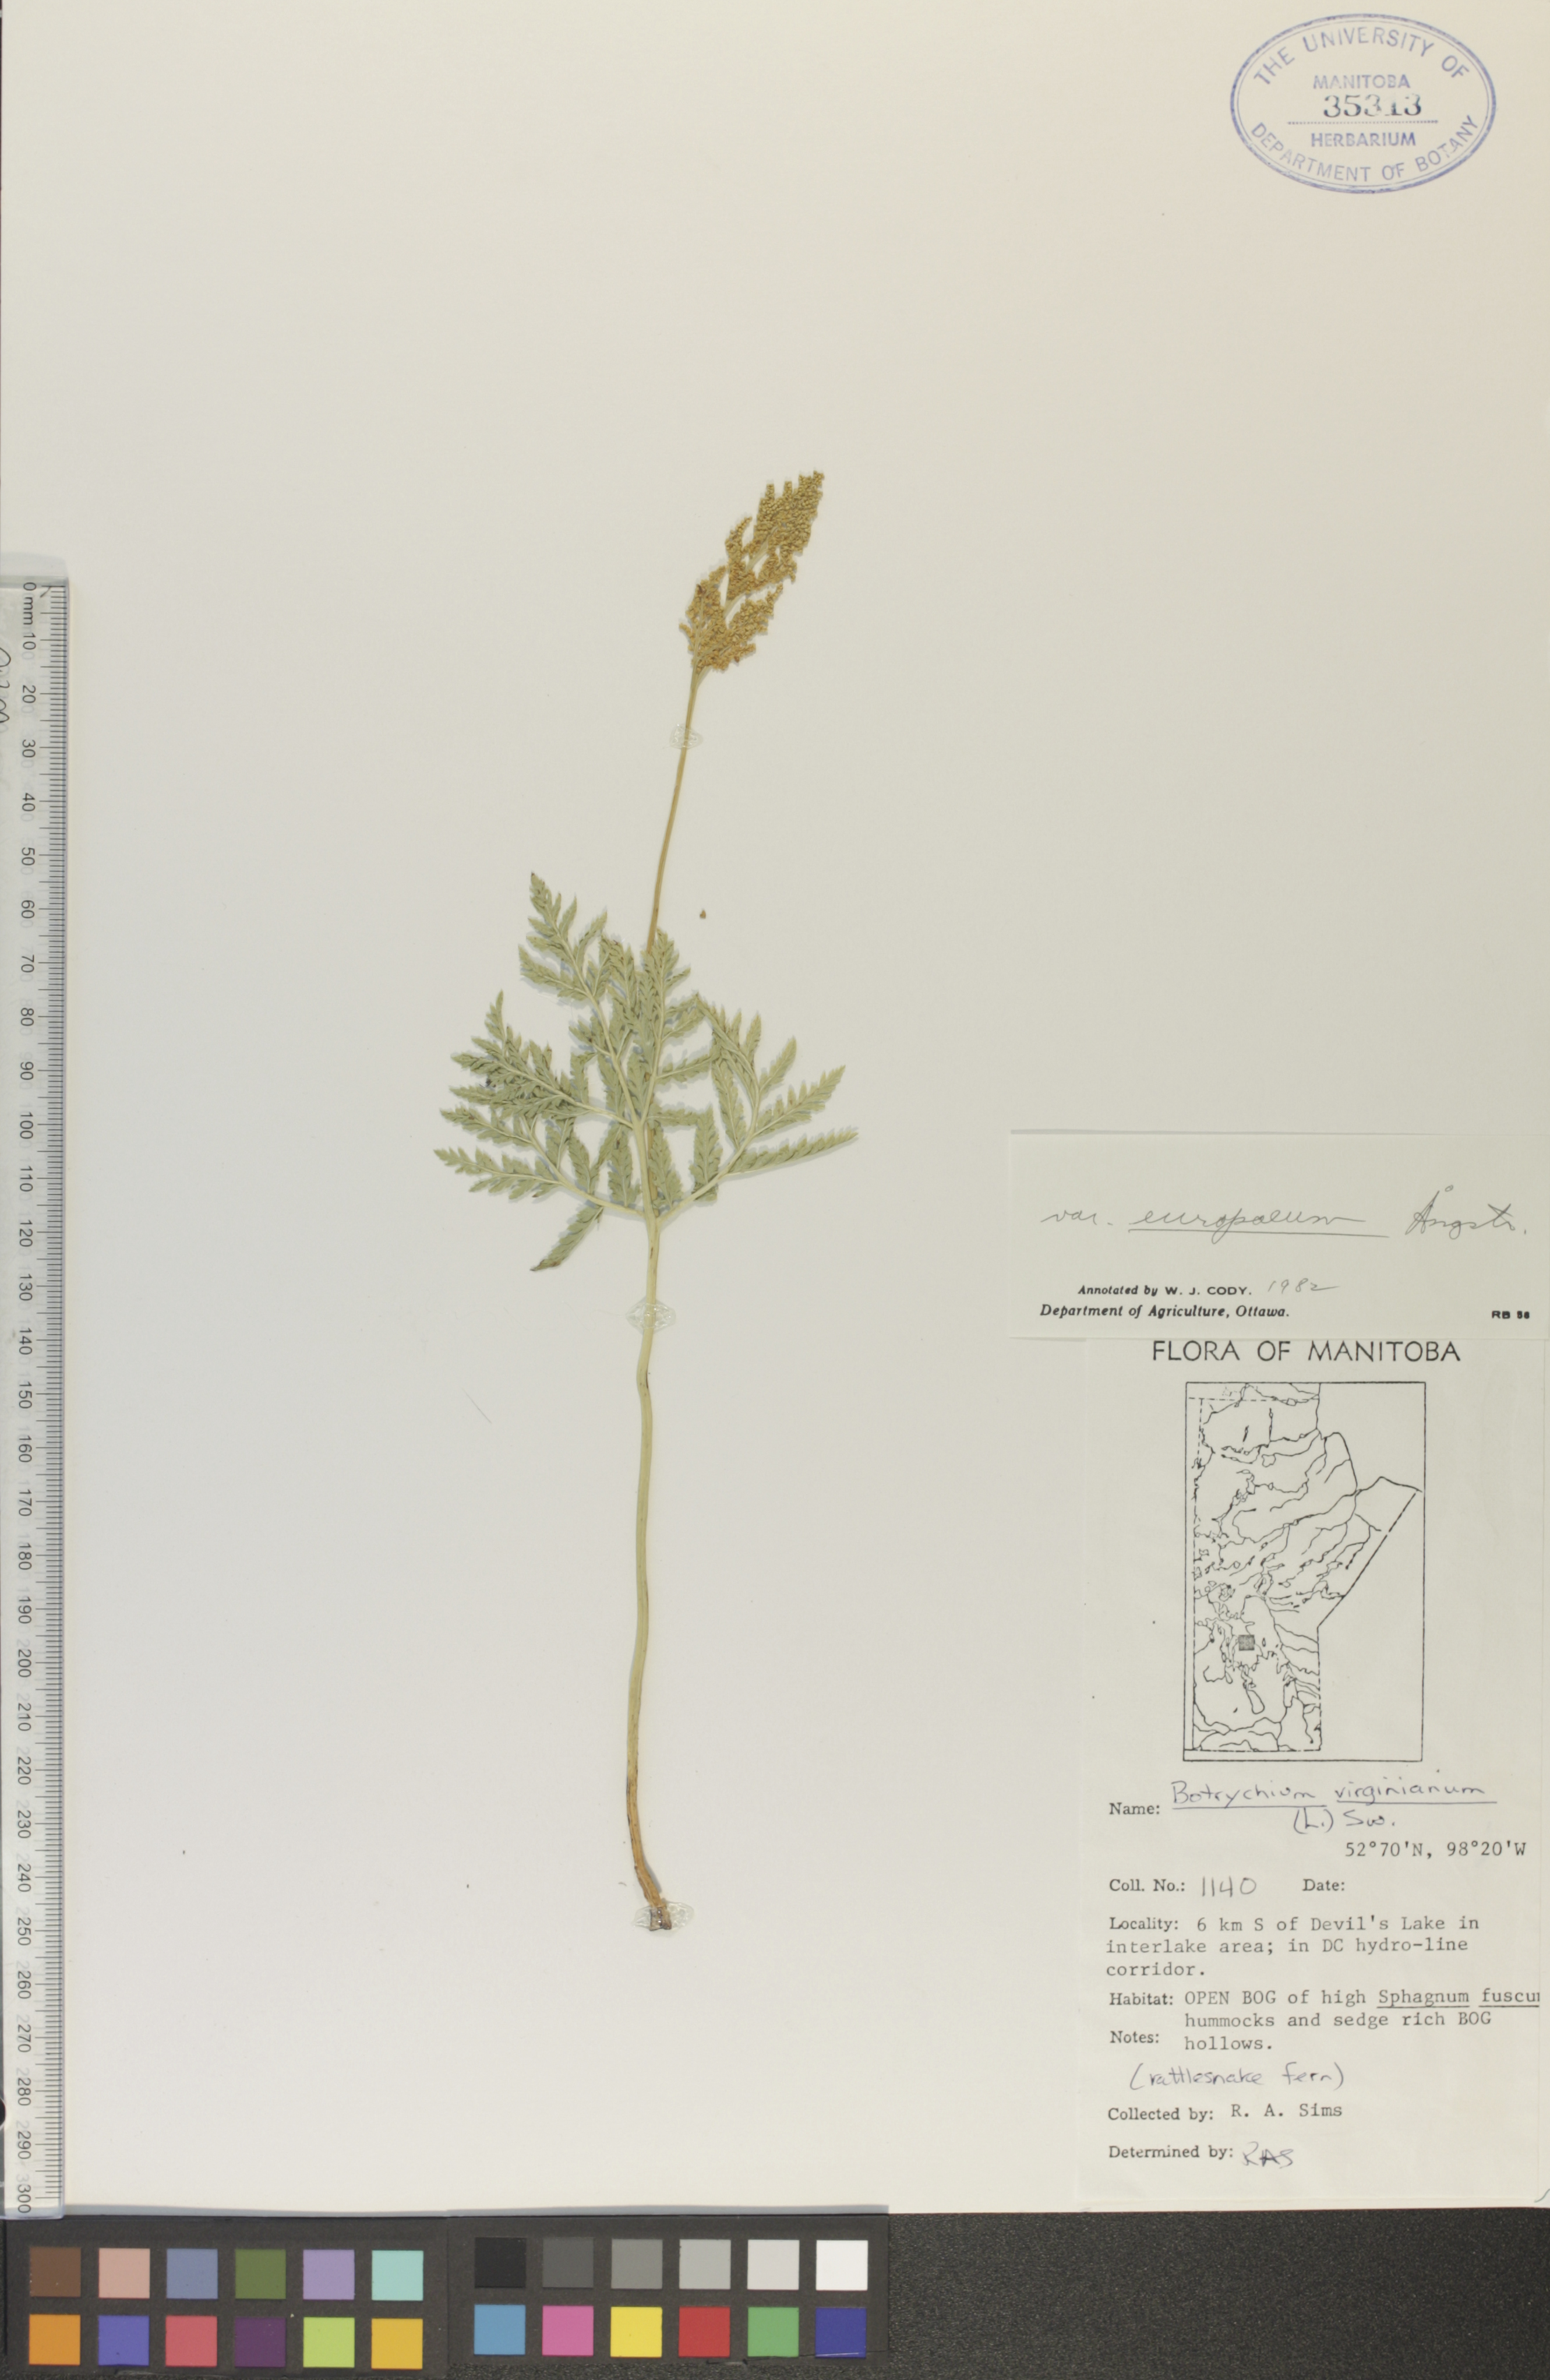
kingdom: Plantae
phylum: Tracheophyta
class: Polypodiopsida
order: Ophioglossales
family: Ophioglossaceae
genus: Botrypus
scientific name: Botrypus virginianus
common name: Common grapefern
